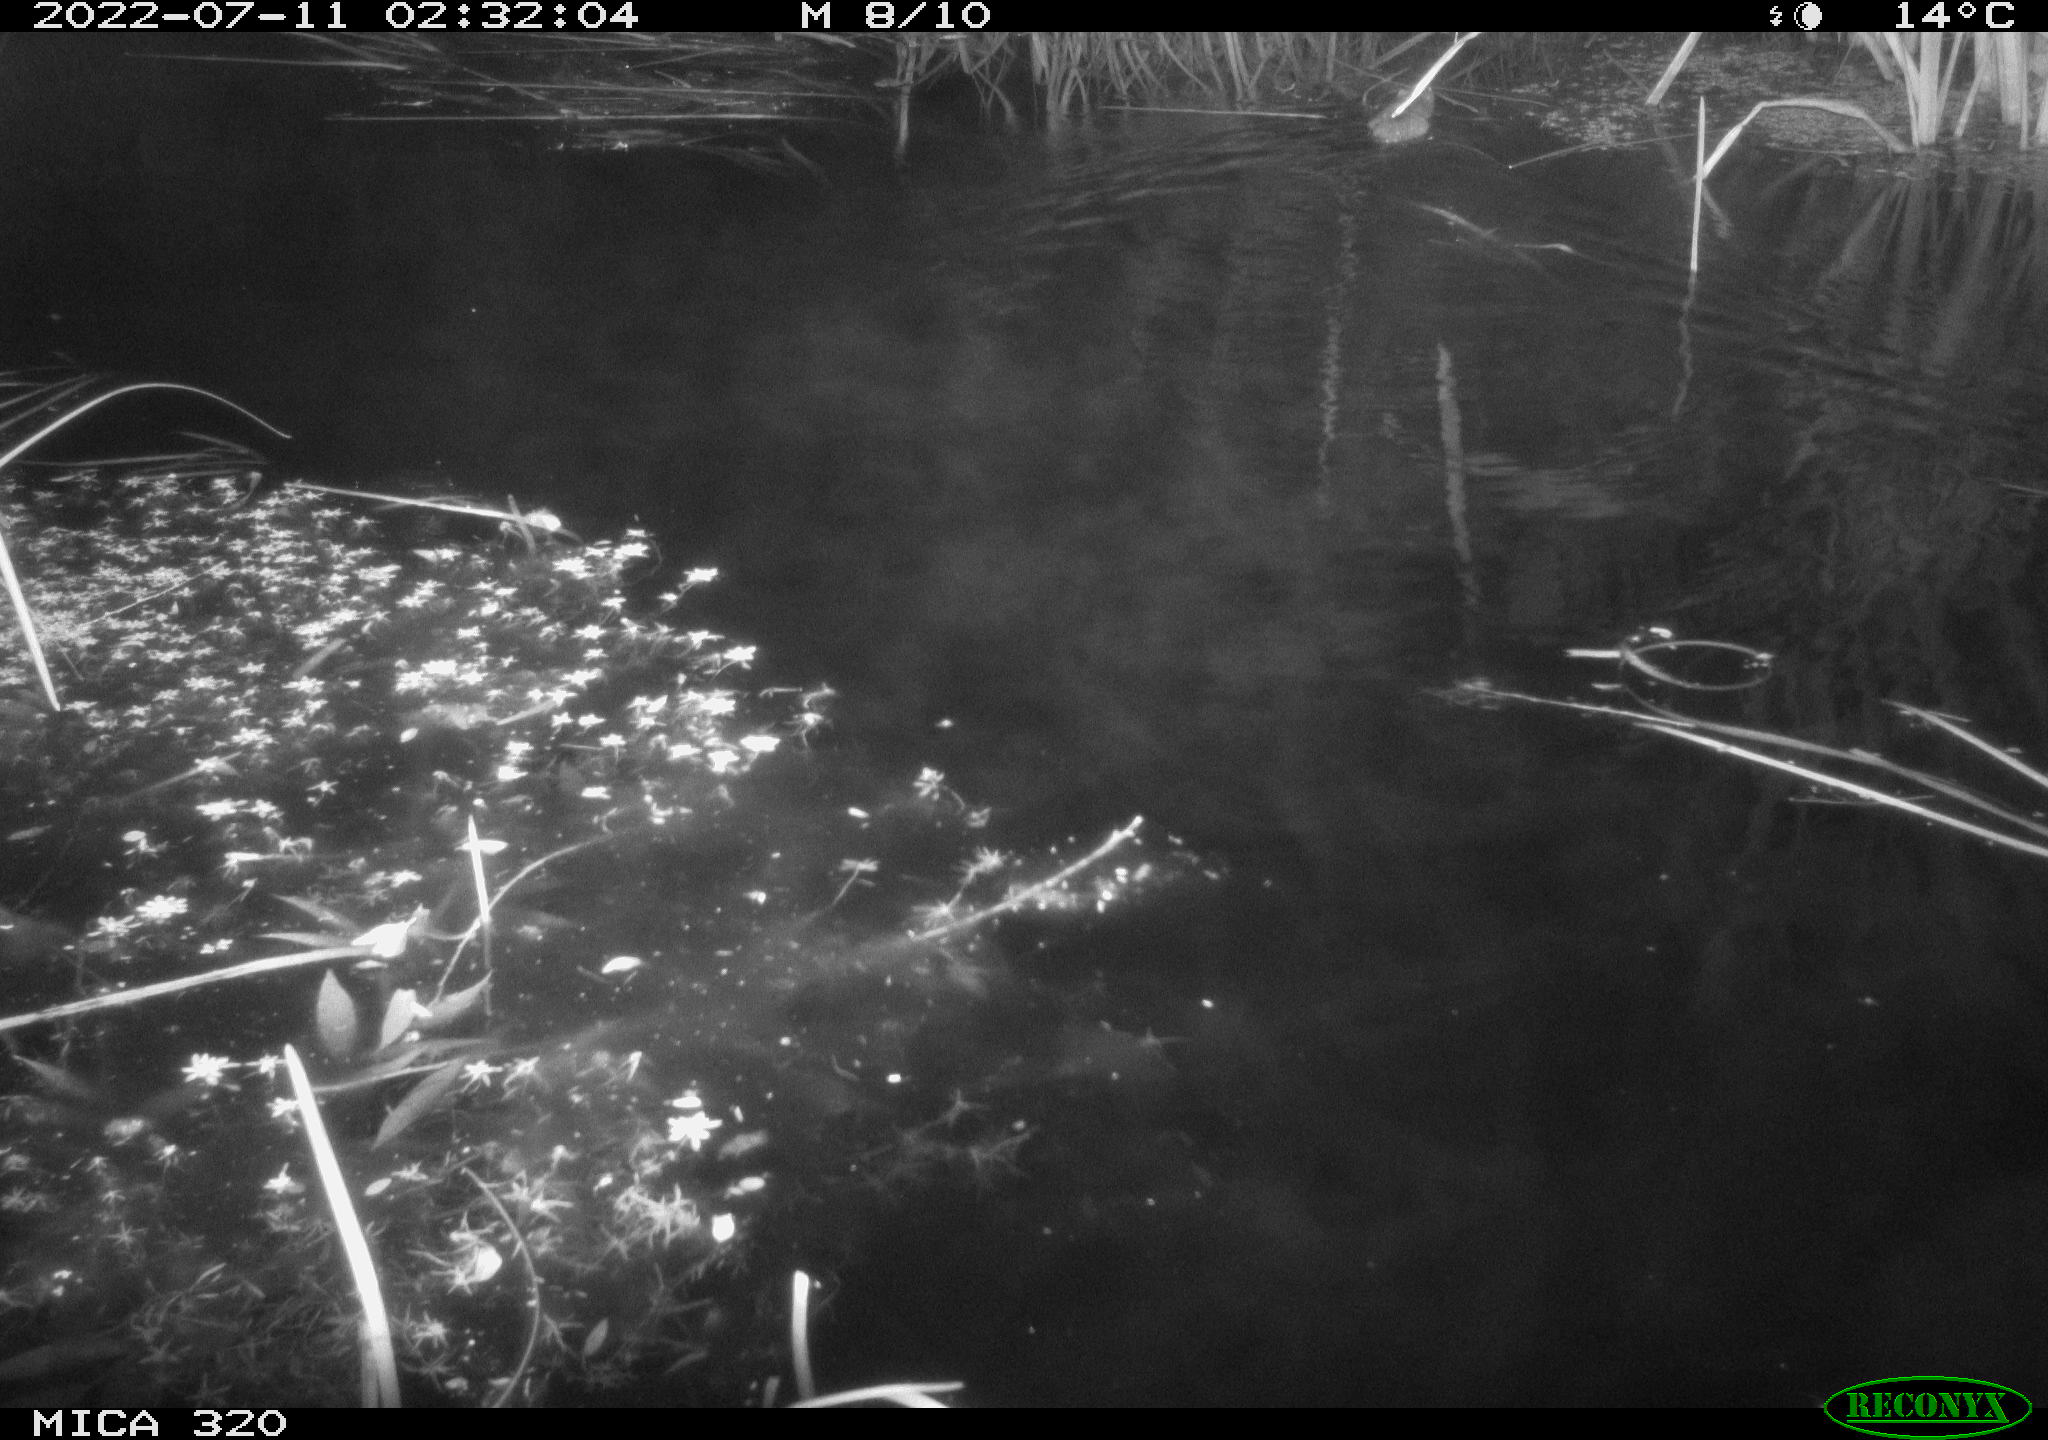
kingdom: Animalia
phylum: Chordata
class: Mammalia
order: Rodentia
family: Muridae
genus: Rattus
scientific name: Rattus norvegicus
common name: Brown rat
